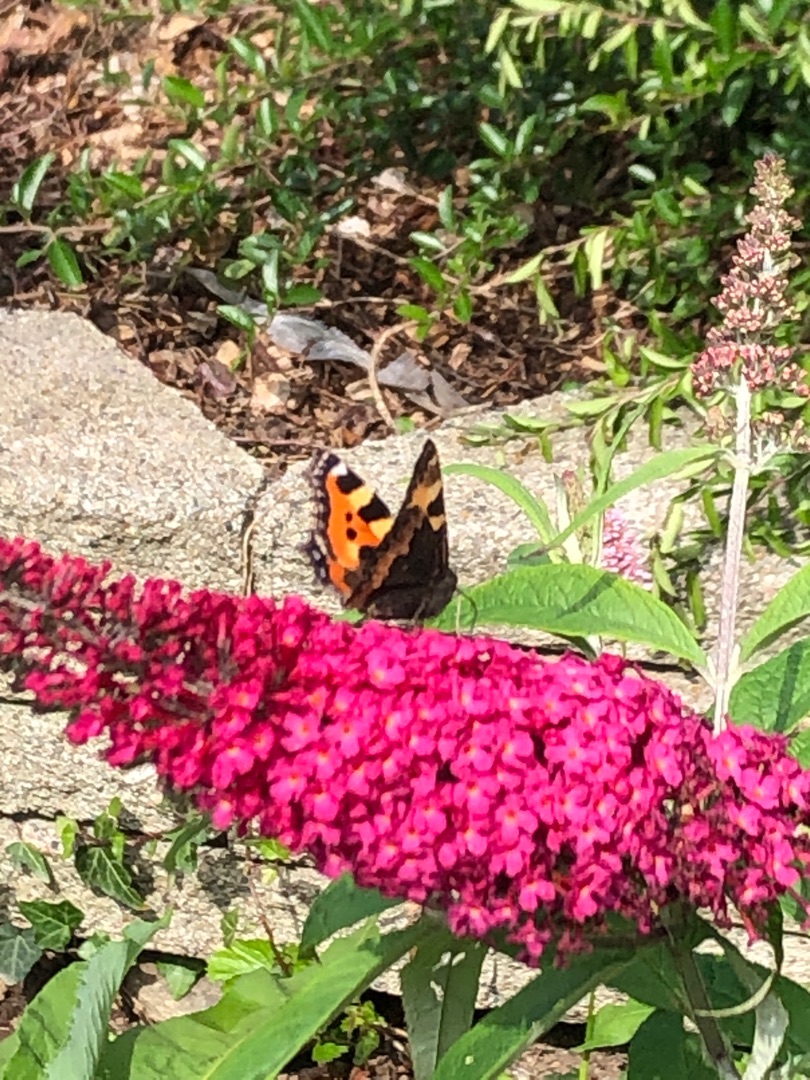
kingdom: Animalia
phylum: Arthropoda
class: Insecta
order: Lepidoptera
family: Nymphalidae
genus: Aglais
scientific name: Aglais urticae
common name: Nældens takvinge
